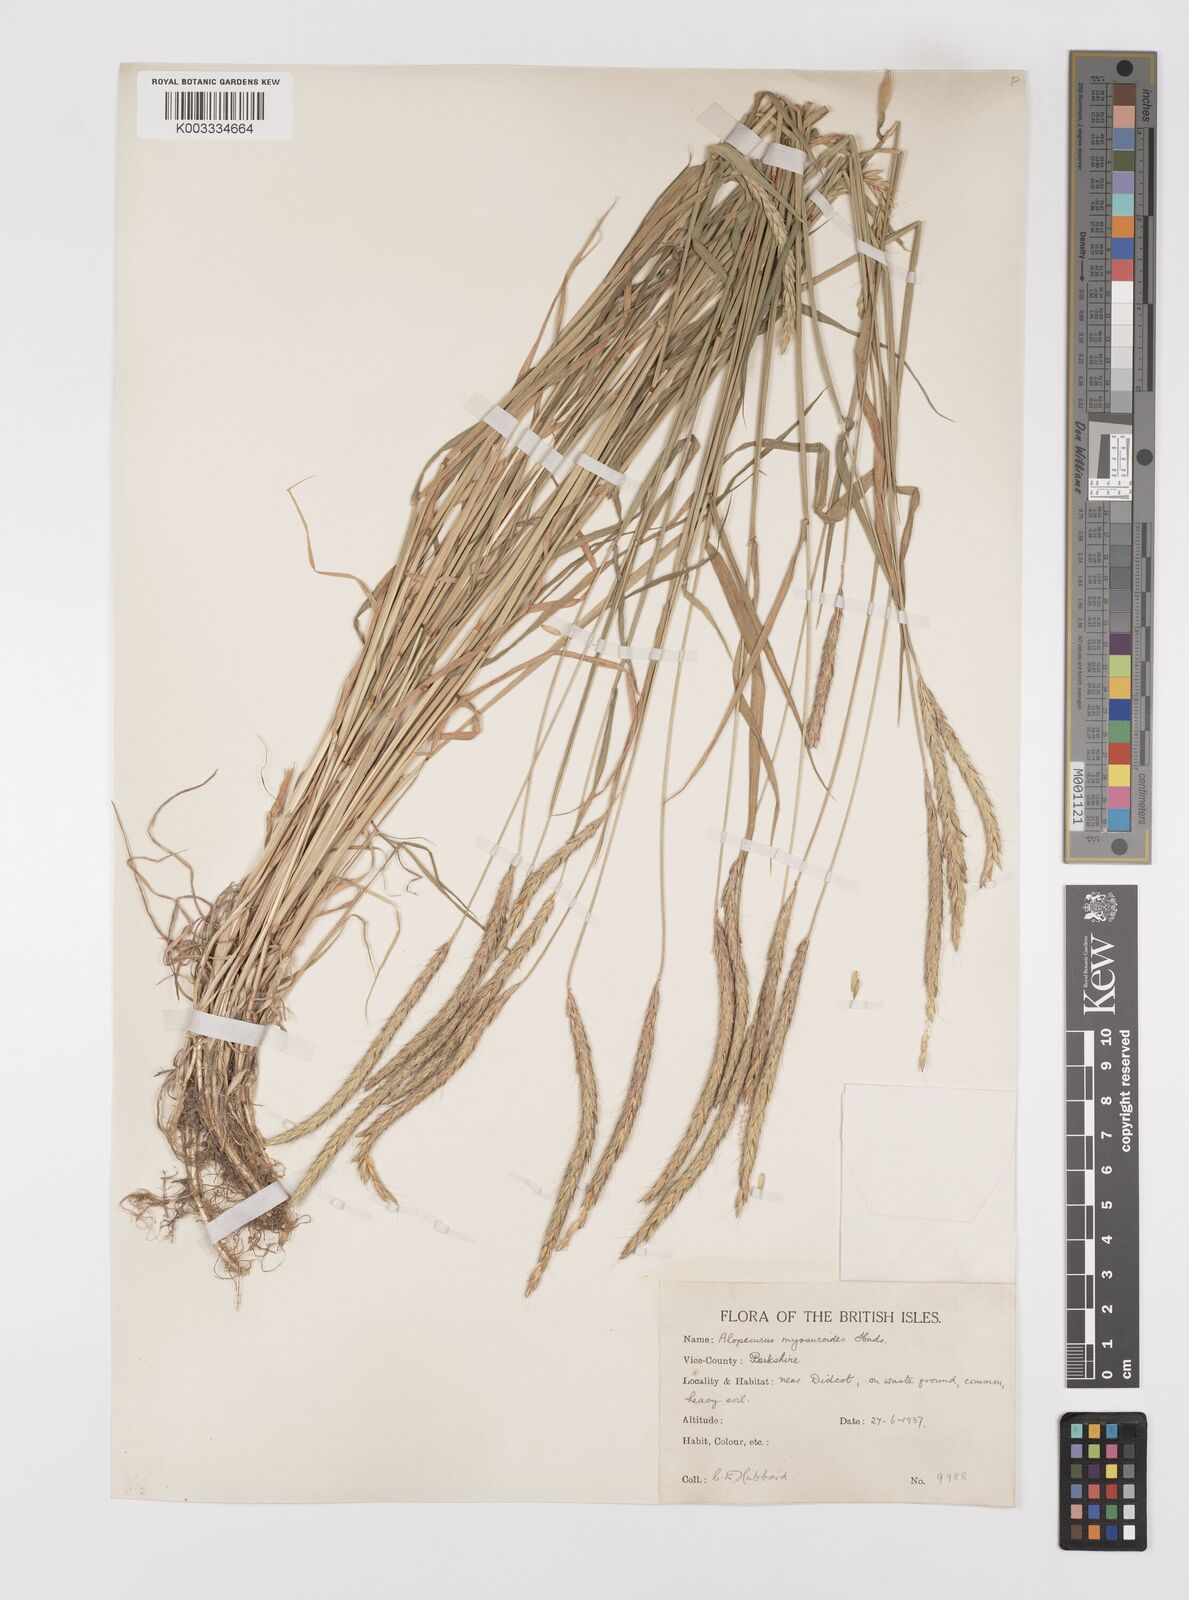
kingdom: Plantae
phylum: Tracheophyta
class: Liliopsida
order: Poales
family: Poaceae
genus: Alopecurus
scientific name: Alopecurus myosuroides
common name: Black-grass
